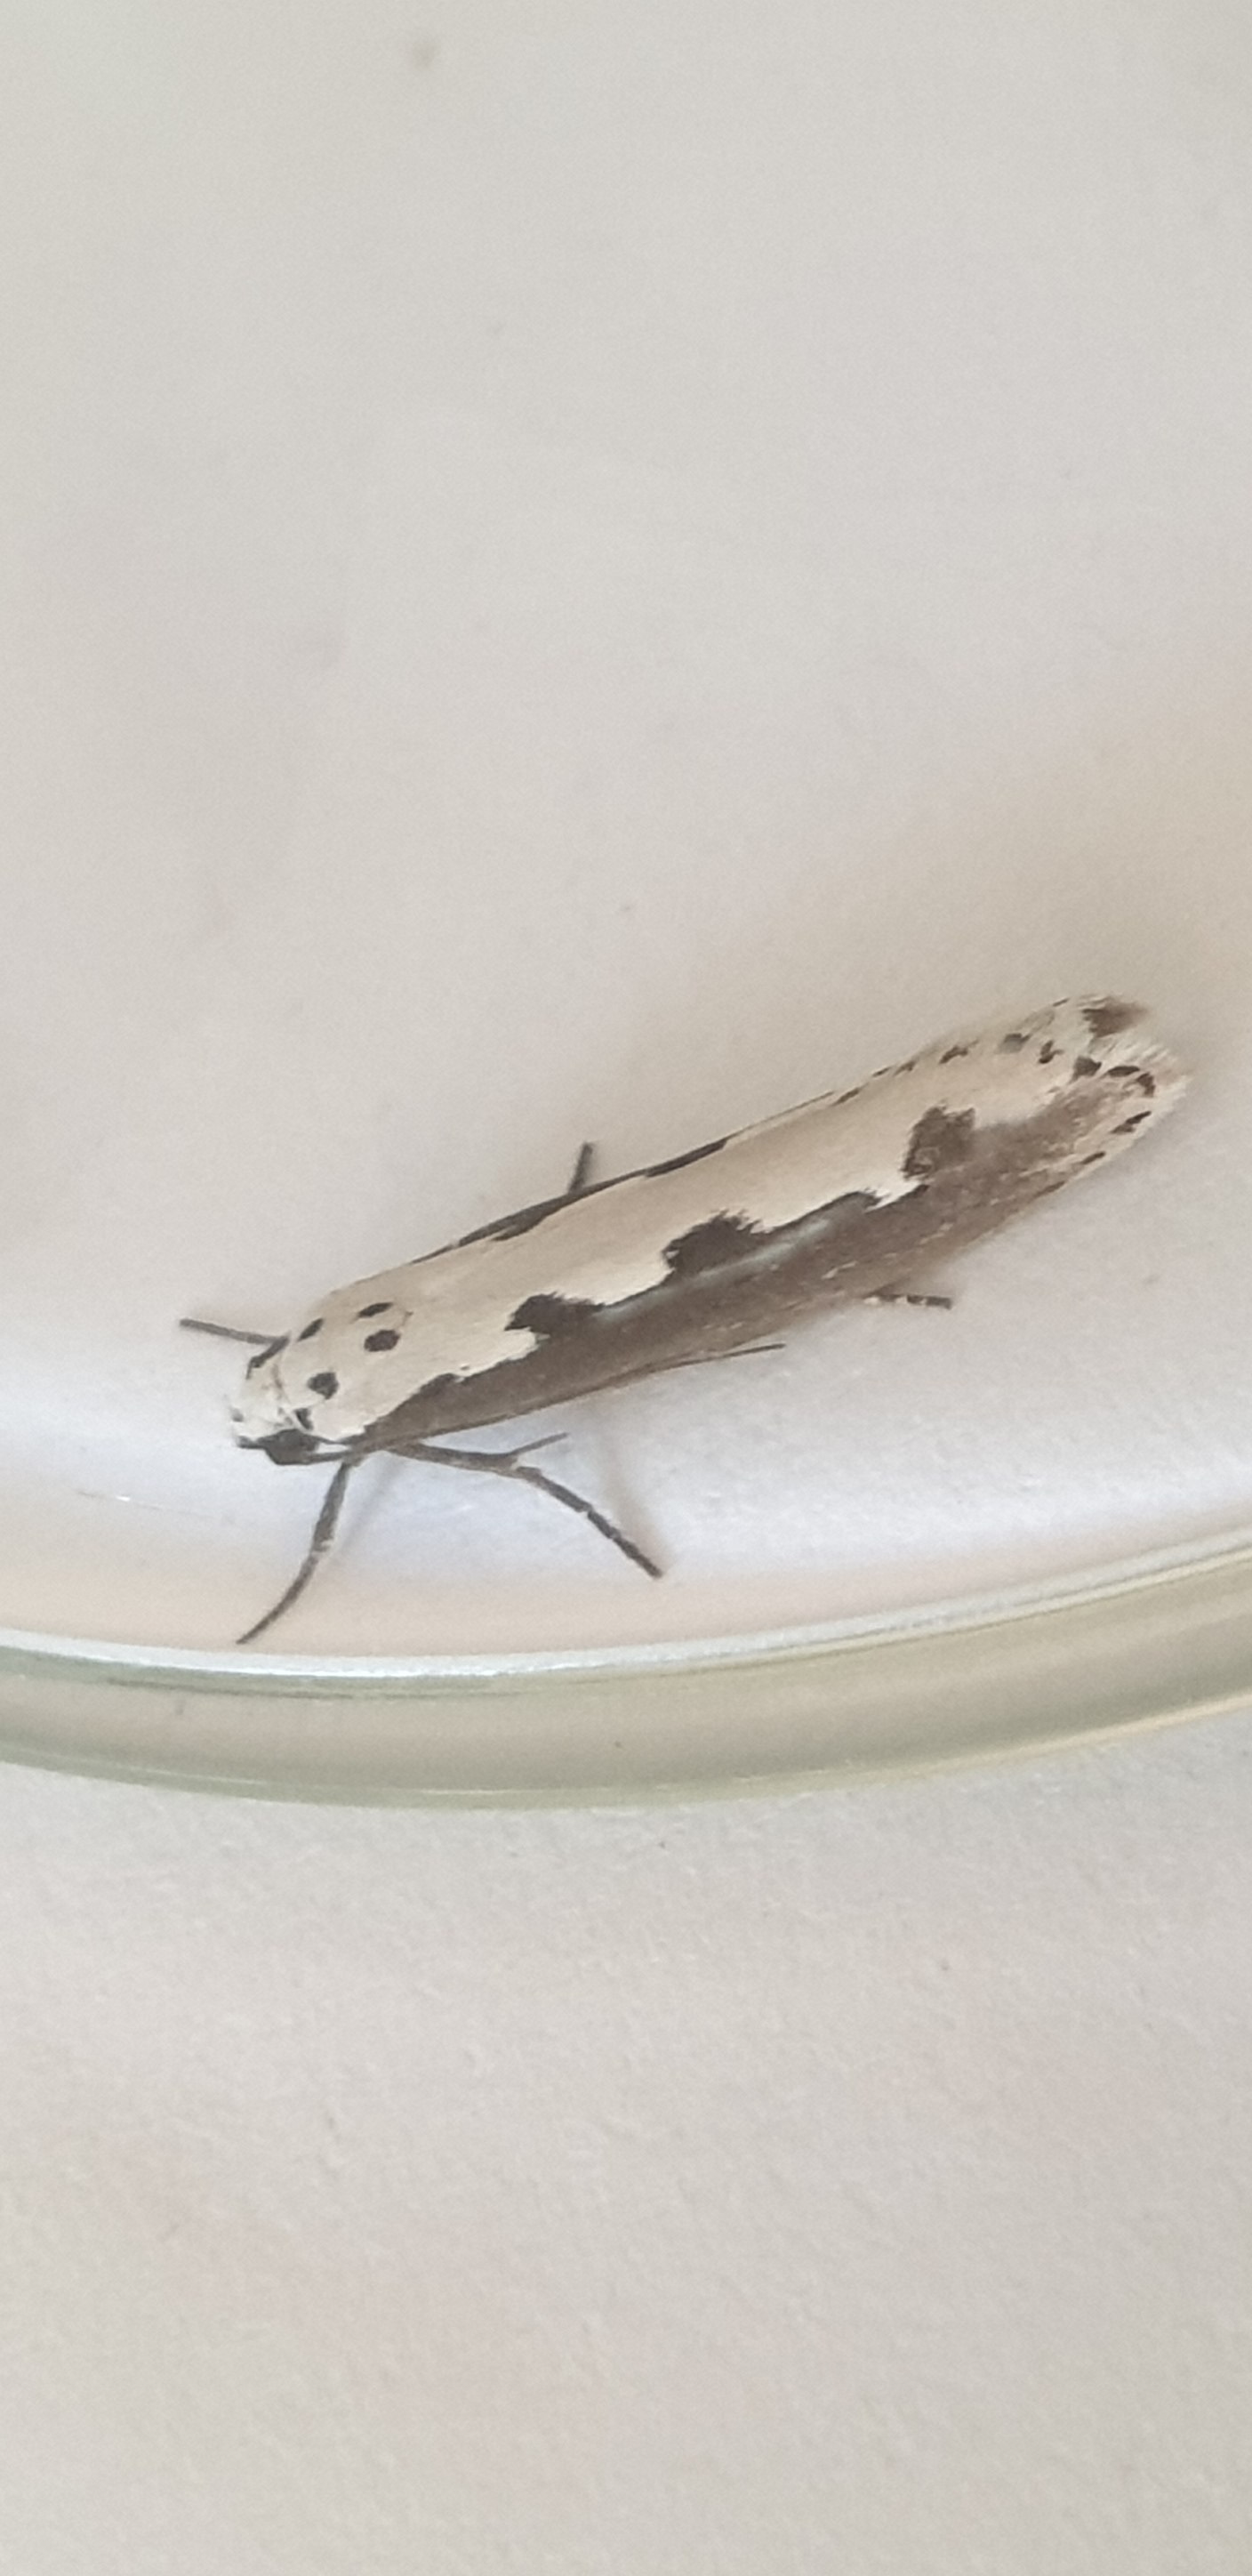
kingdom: Animalia
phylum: Arthropoda
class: Insecta
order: Lepidoptera
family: Ethmiidae
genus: Ethmia
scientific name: Ethmia bipunctella
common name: Slangehovedmøl
